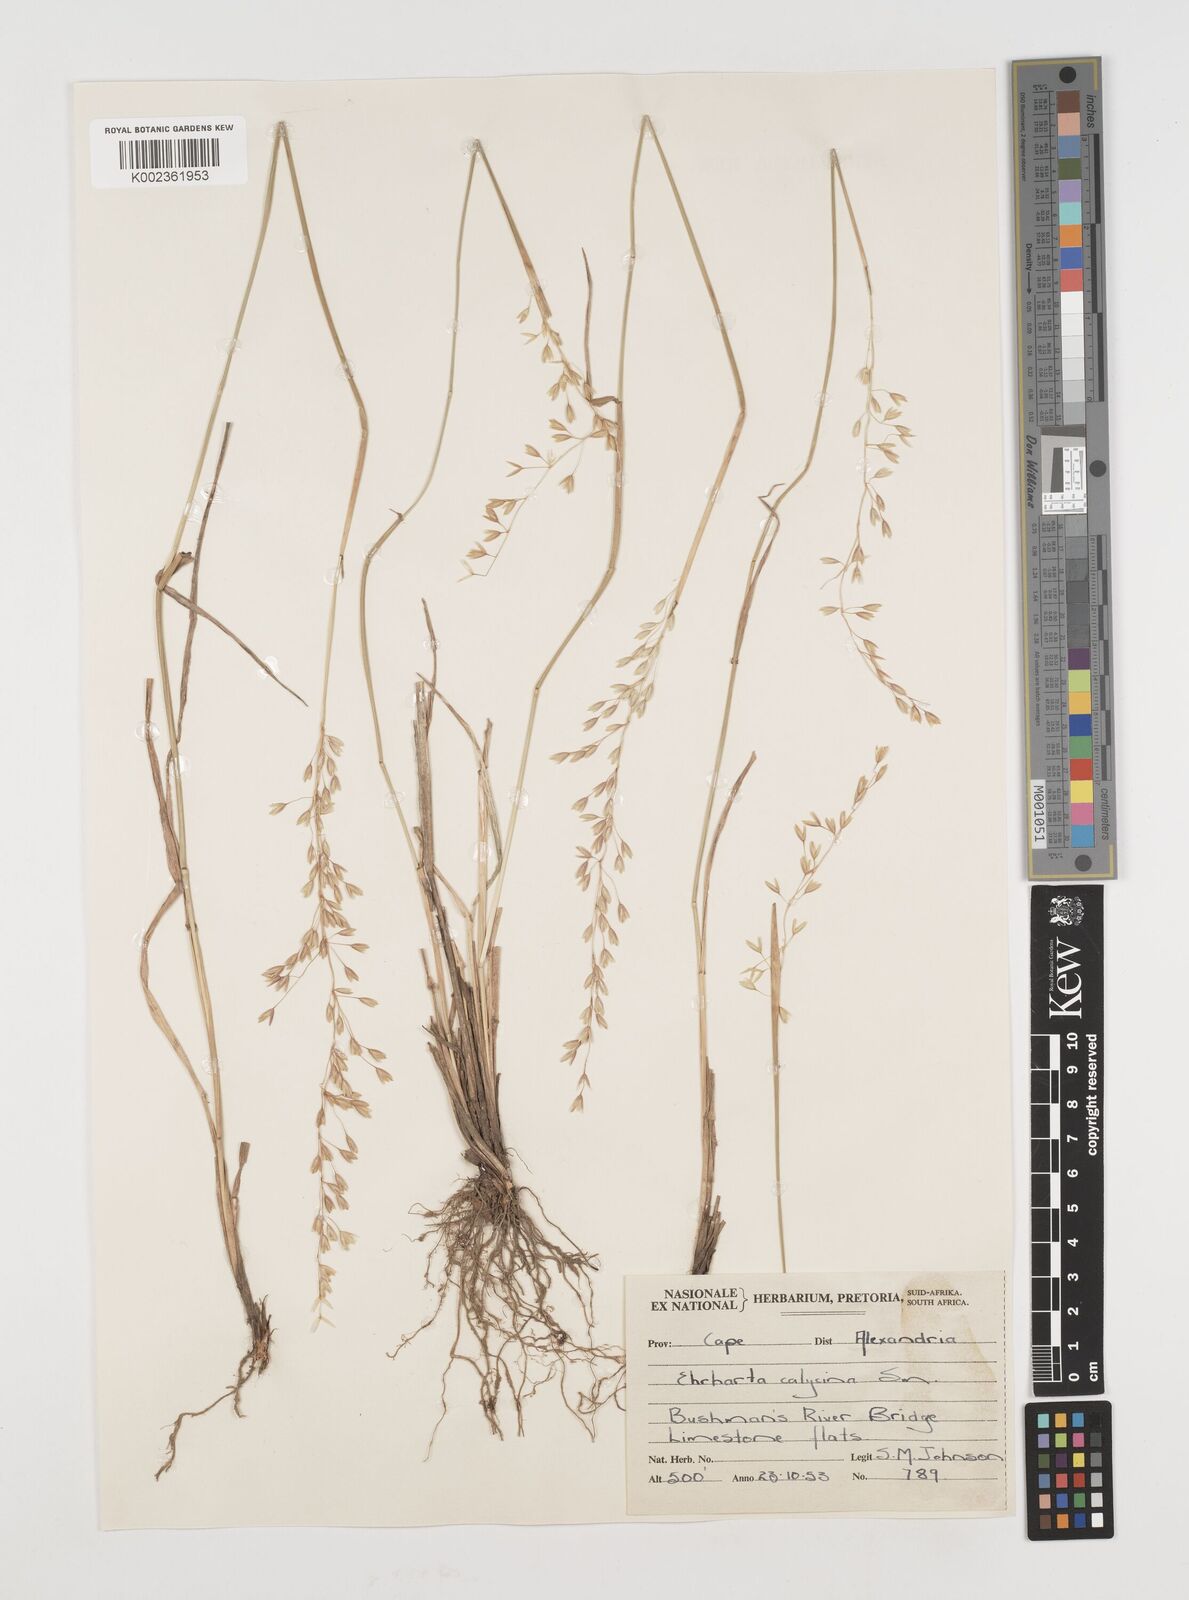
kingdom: Plantae
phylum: Tracheophyta
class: Liliopsida
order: Poales
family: Poaceae
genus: Ehrharta
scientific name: Ehrharta calycina
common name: Perennial veldtgrass
